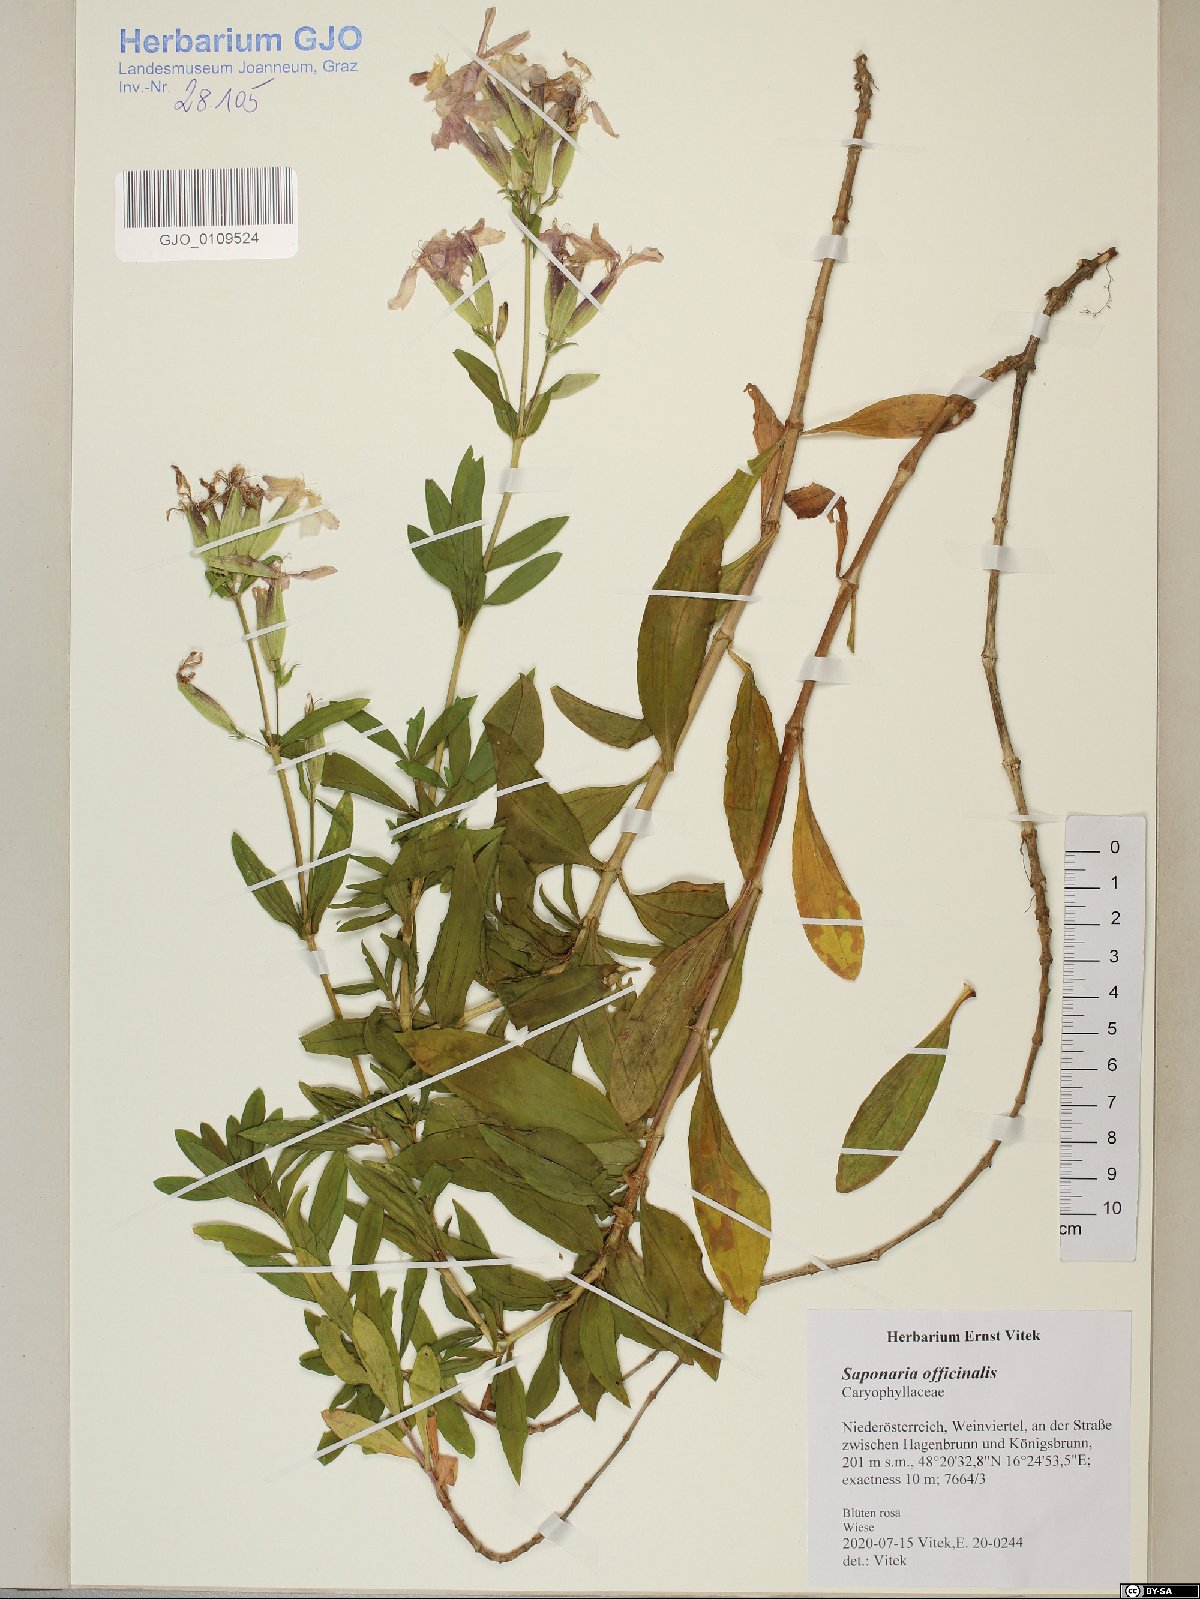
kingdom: Plantae
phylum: Tracheophyta
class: Magnoliopsida
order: Caryophyllales
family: Caryophyllaceae
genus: Saponaria
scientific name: Saponaria officinalis
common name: Soapwort
